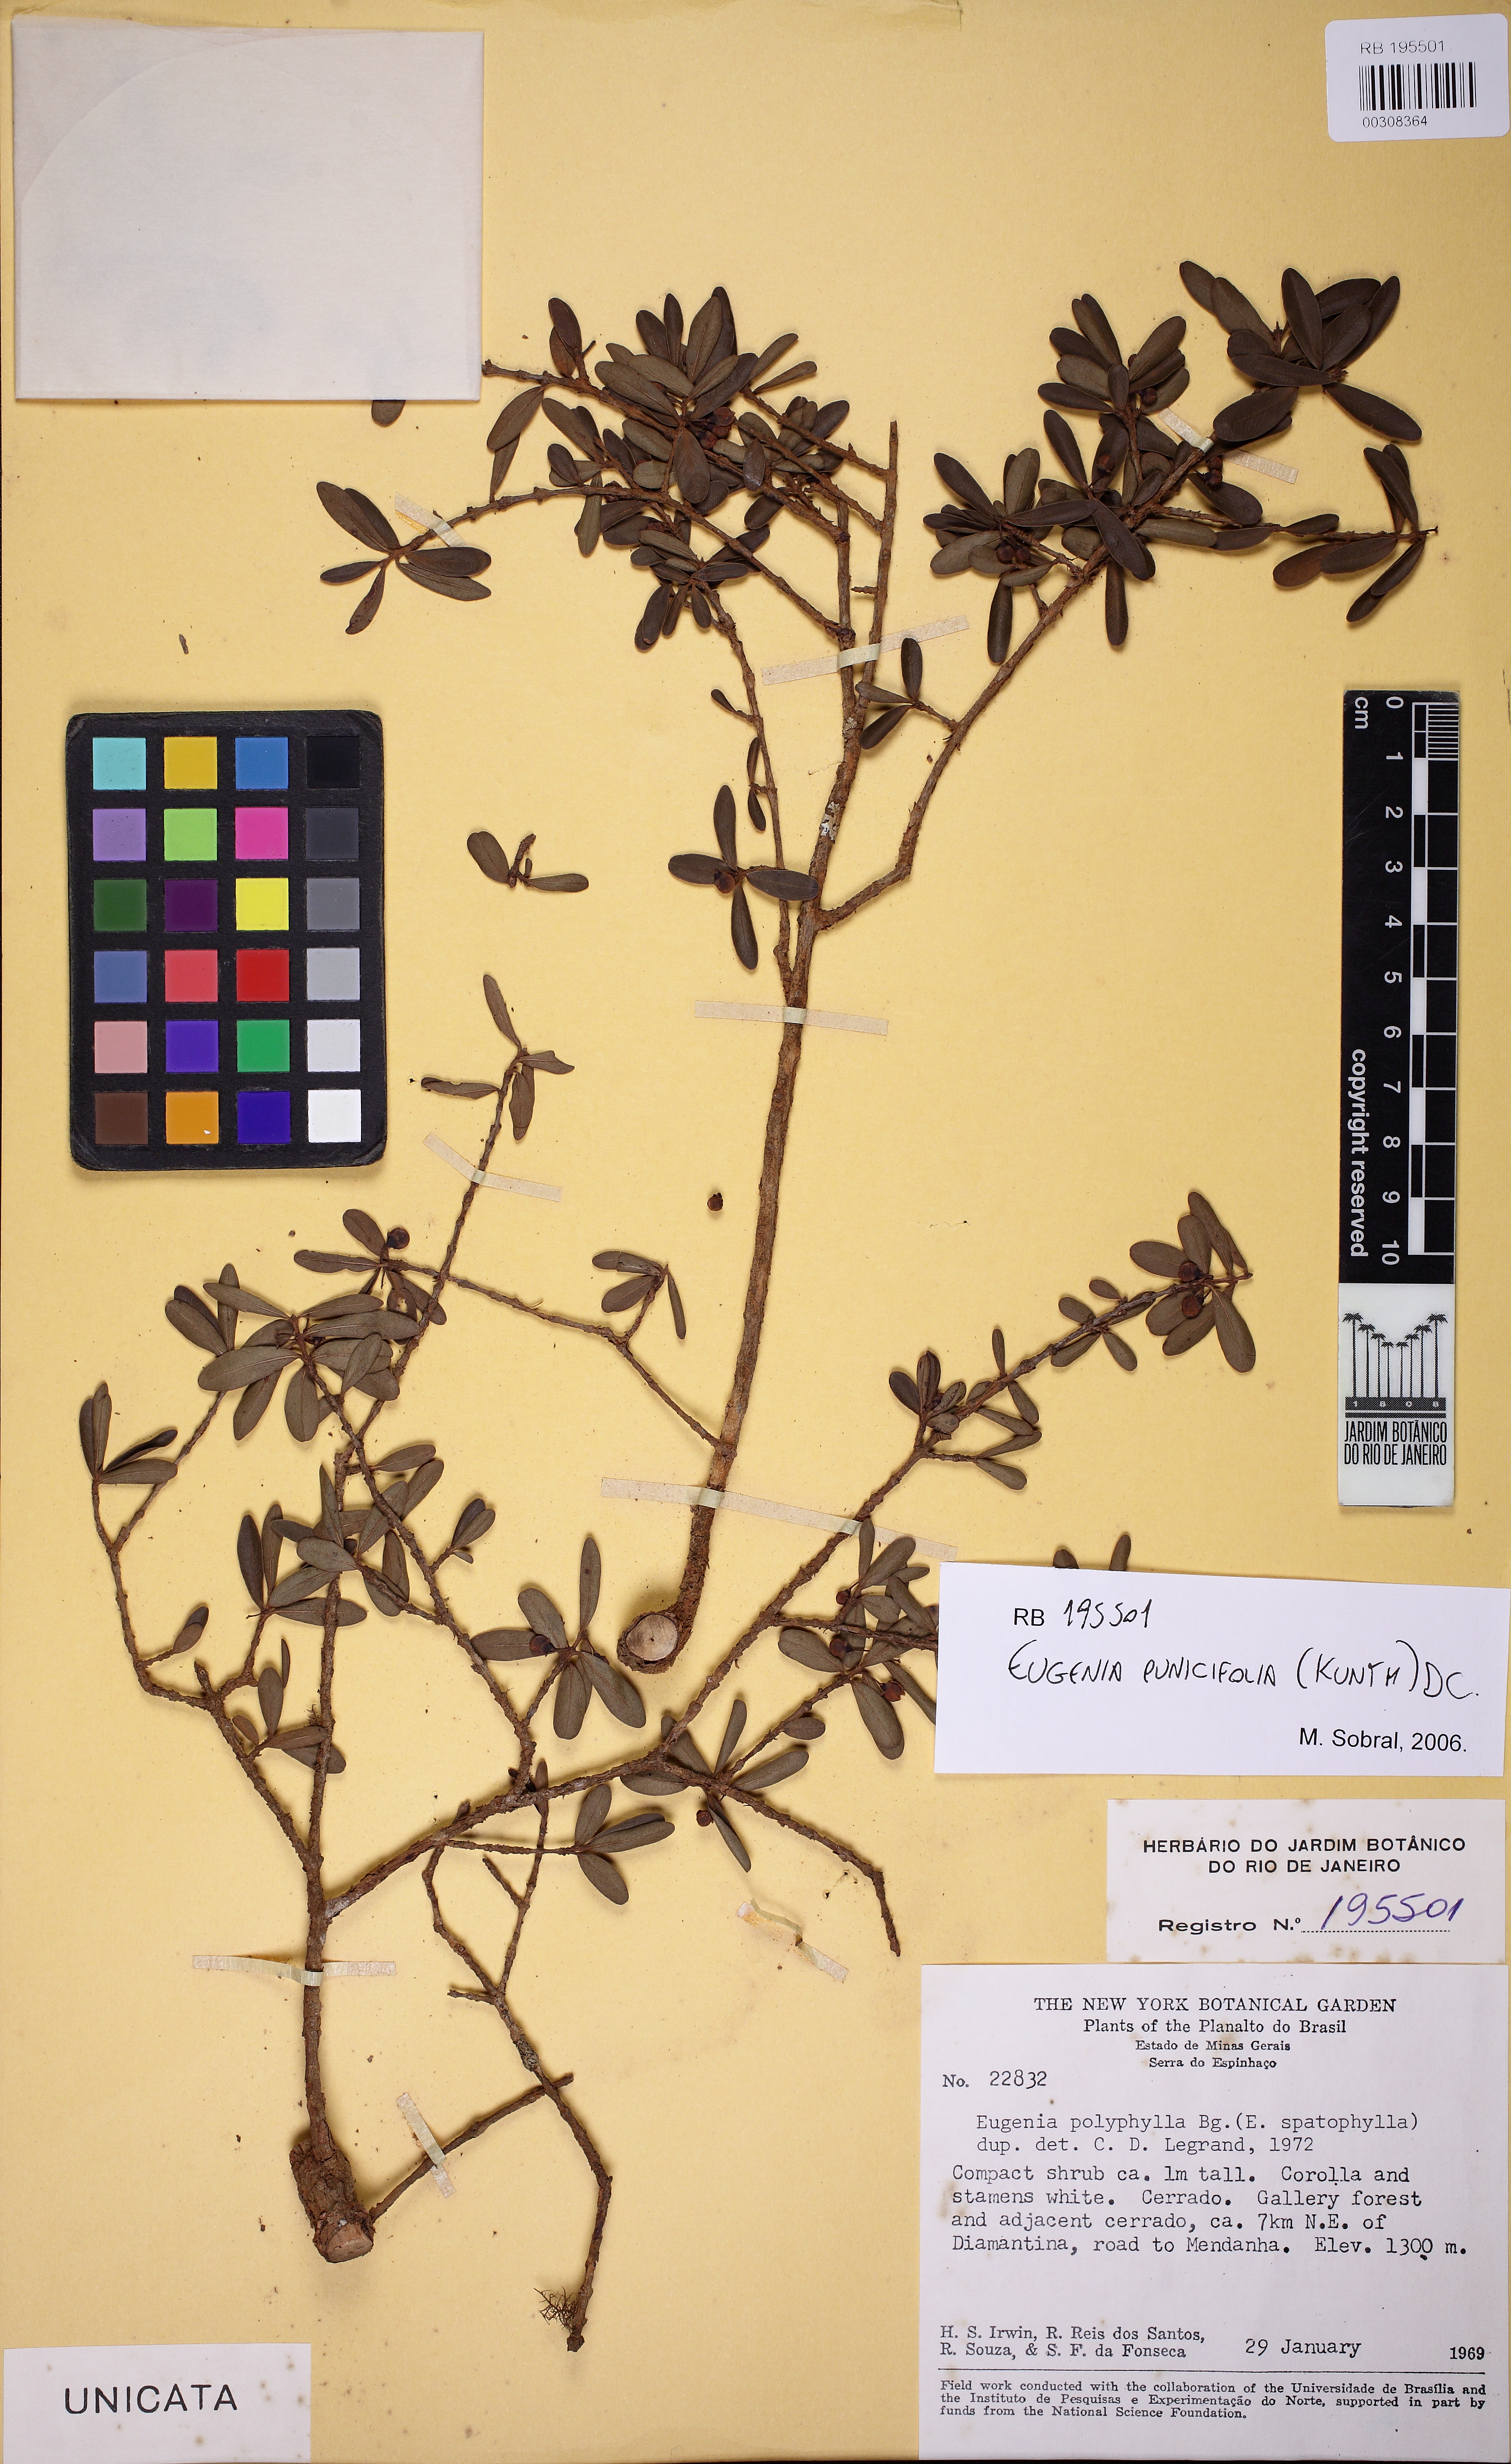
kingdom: Plantae
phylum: Tracheophyta
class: Magnoliopsida
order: Myrtales
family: Myrtaceae
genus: Eugenia
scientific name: Eugenia punicifolia
